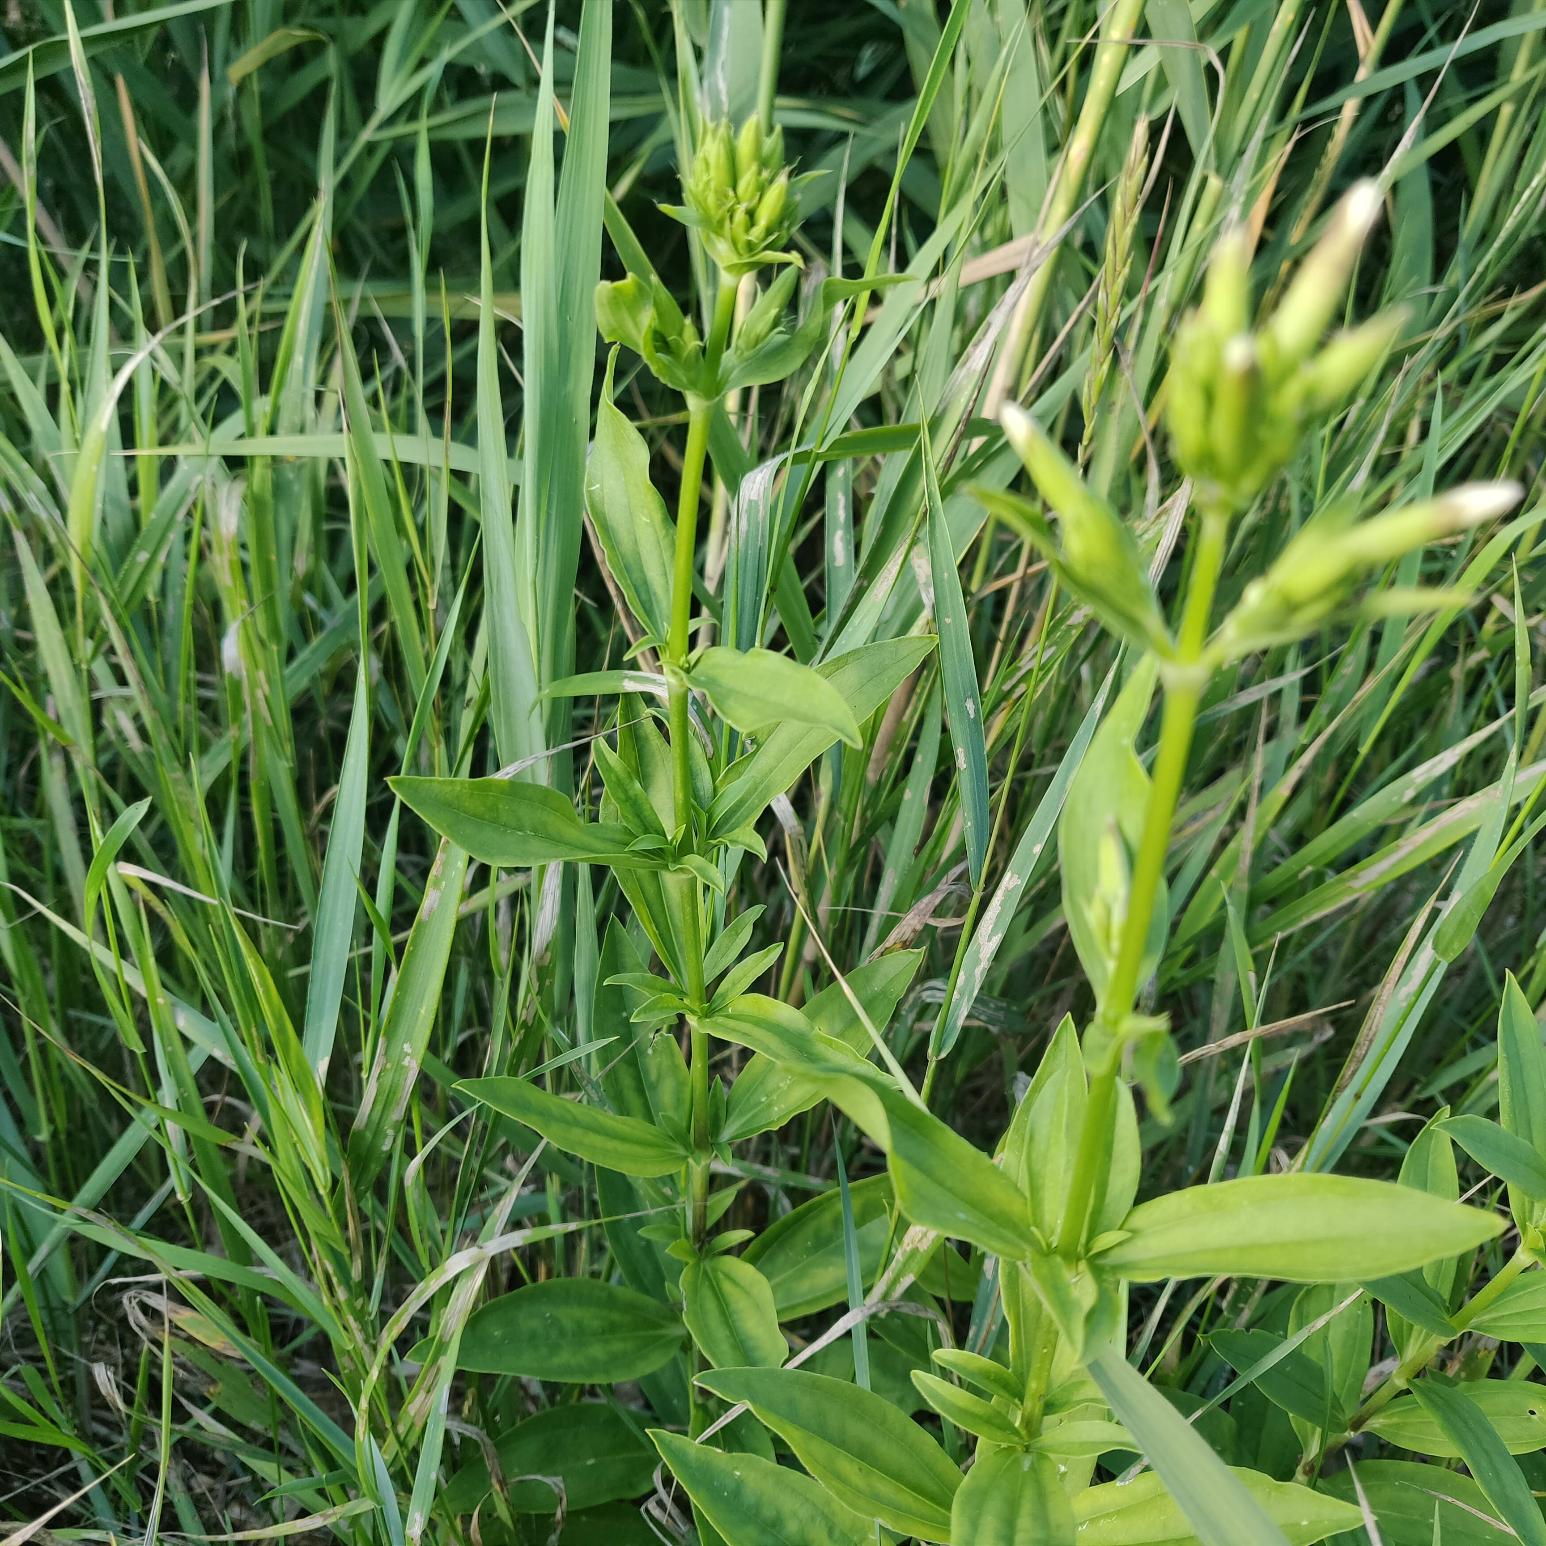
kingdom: Plantae
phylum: Tracheophyta
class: Magnoliopsida
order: Caryophyllales
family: Caryophyllaceae
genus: Saponaria
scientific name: Saponaria officinalis
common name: Sæbeurt
